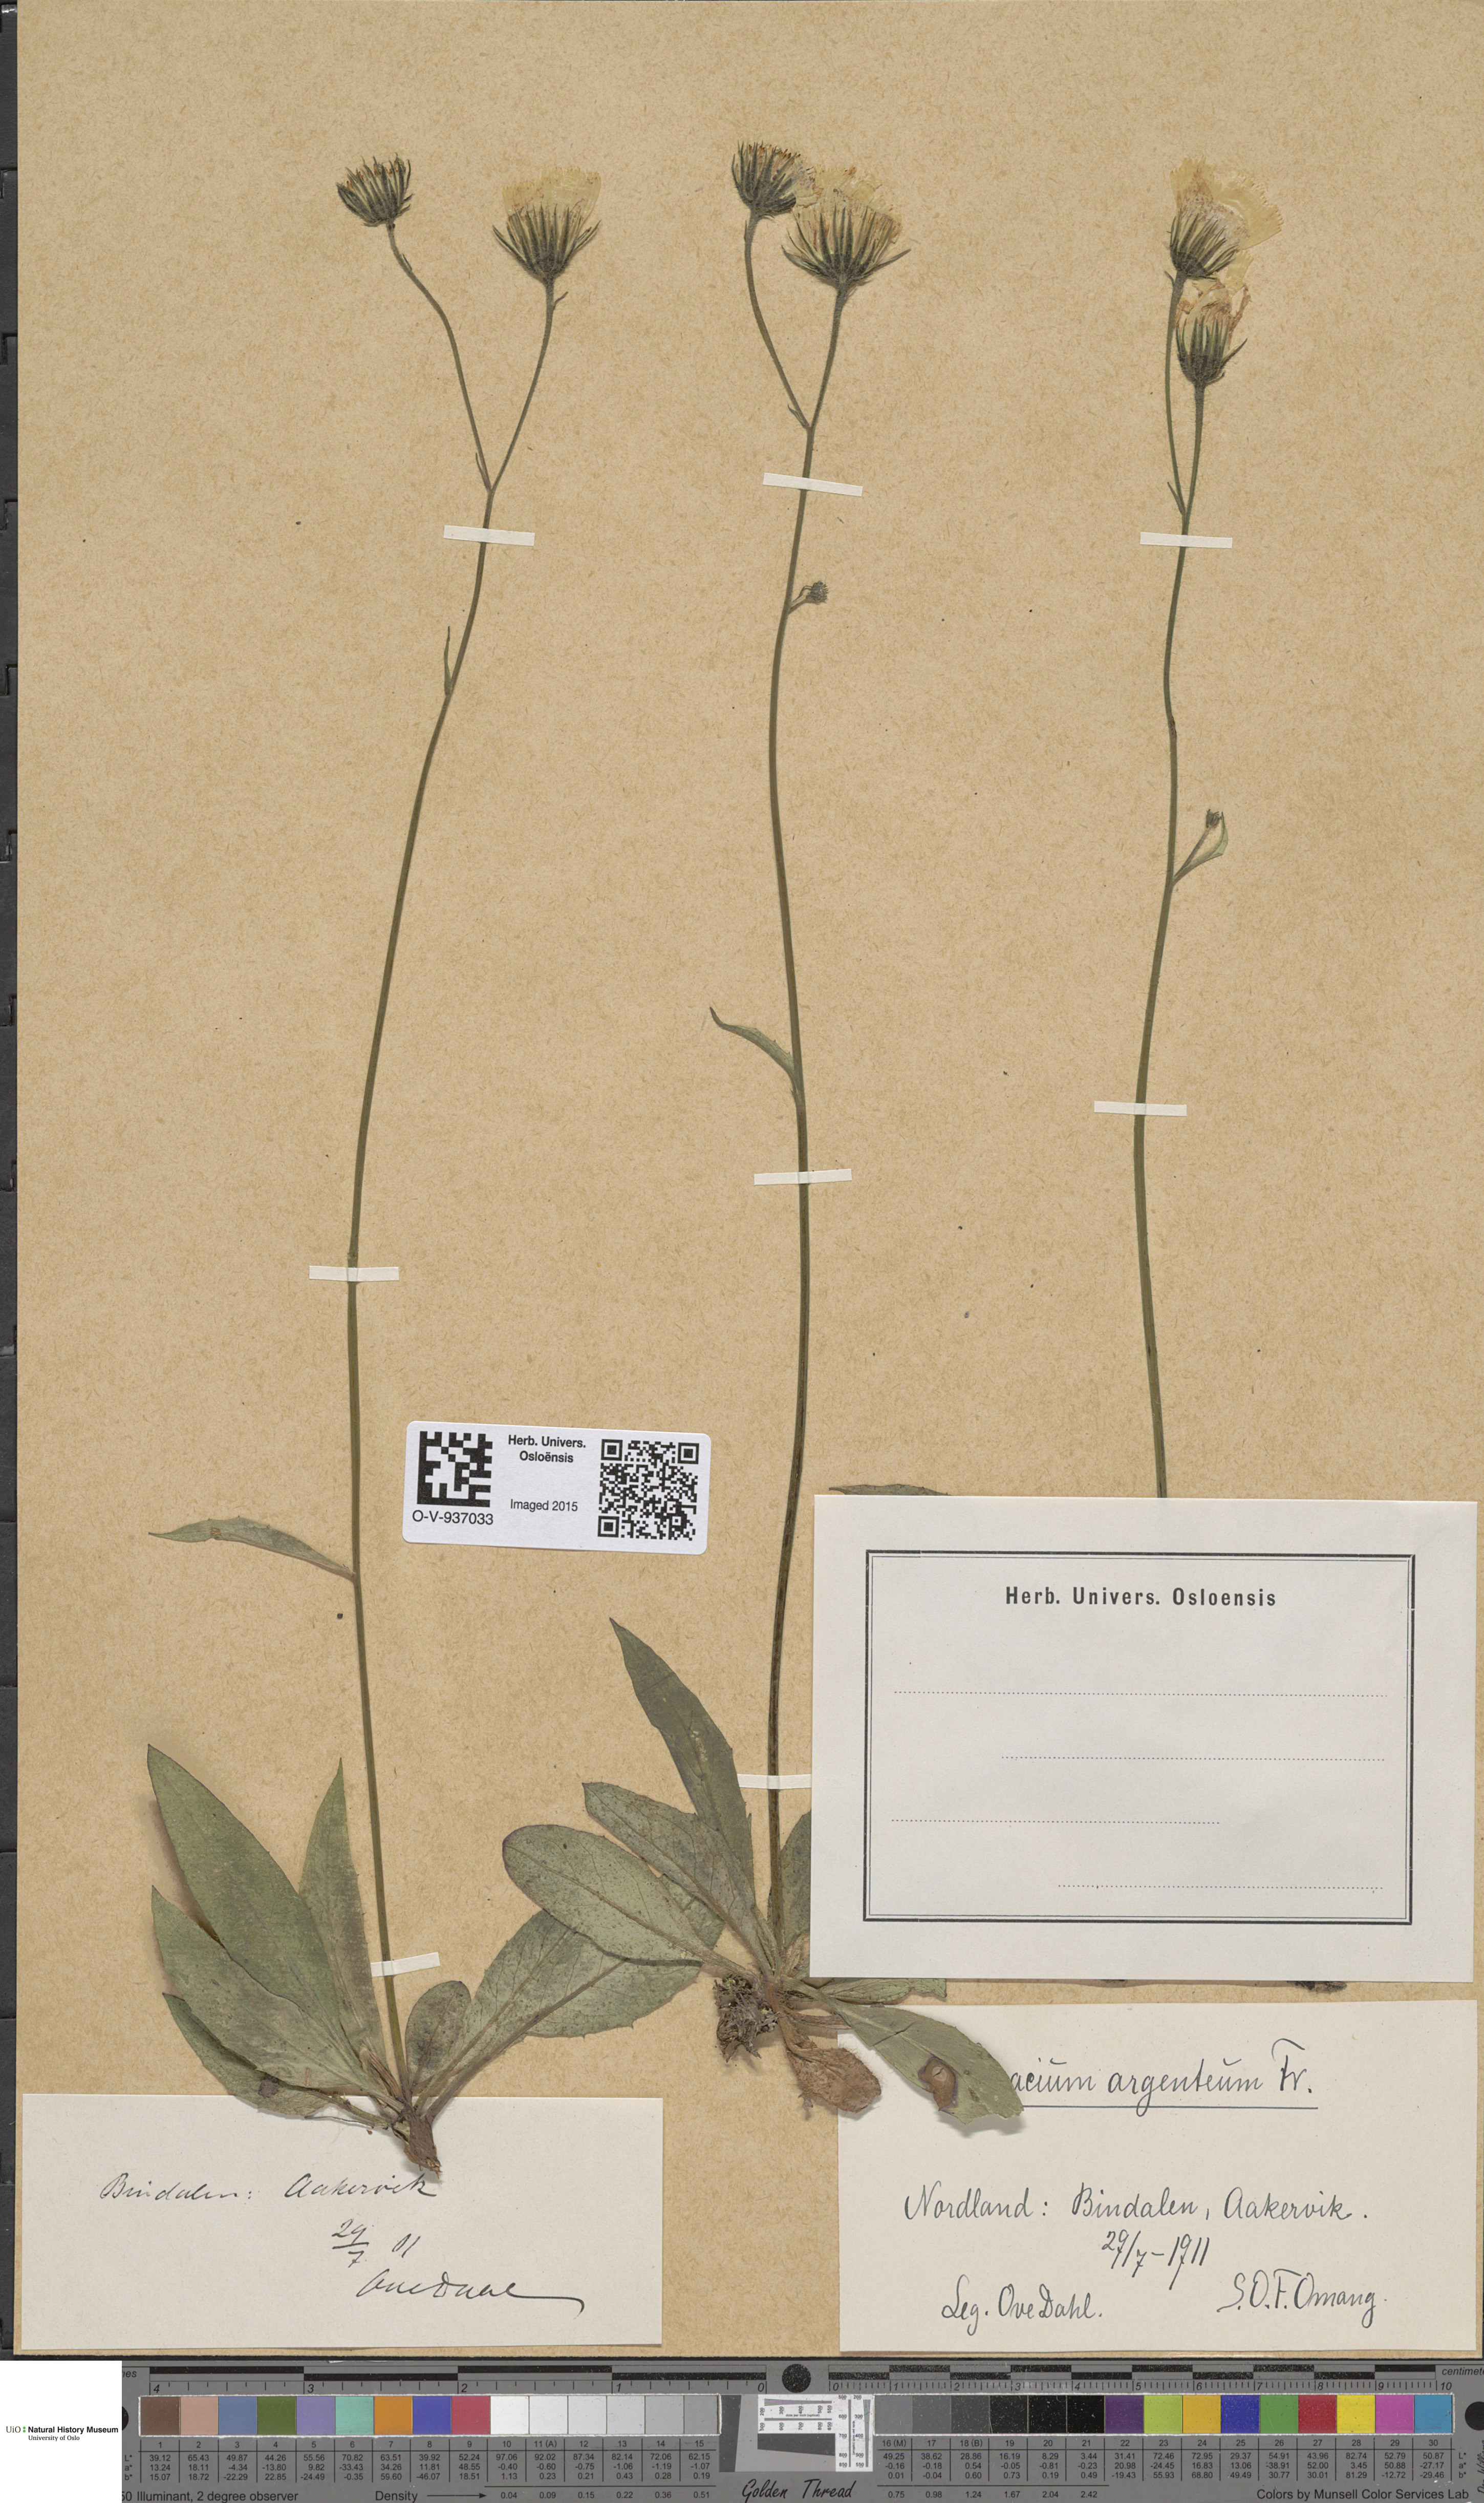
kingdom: Plantae
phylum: Tracheophyta
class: Magnoliopsida
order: Asterales
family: Asteraceae
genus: Hieracium
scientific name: Hieracium argenteum
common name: Silver hawkweed
